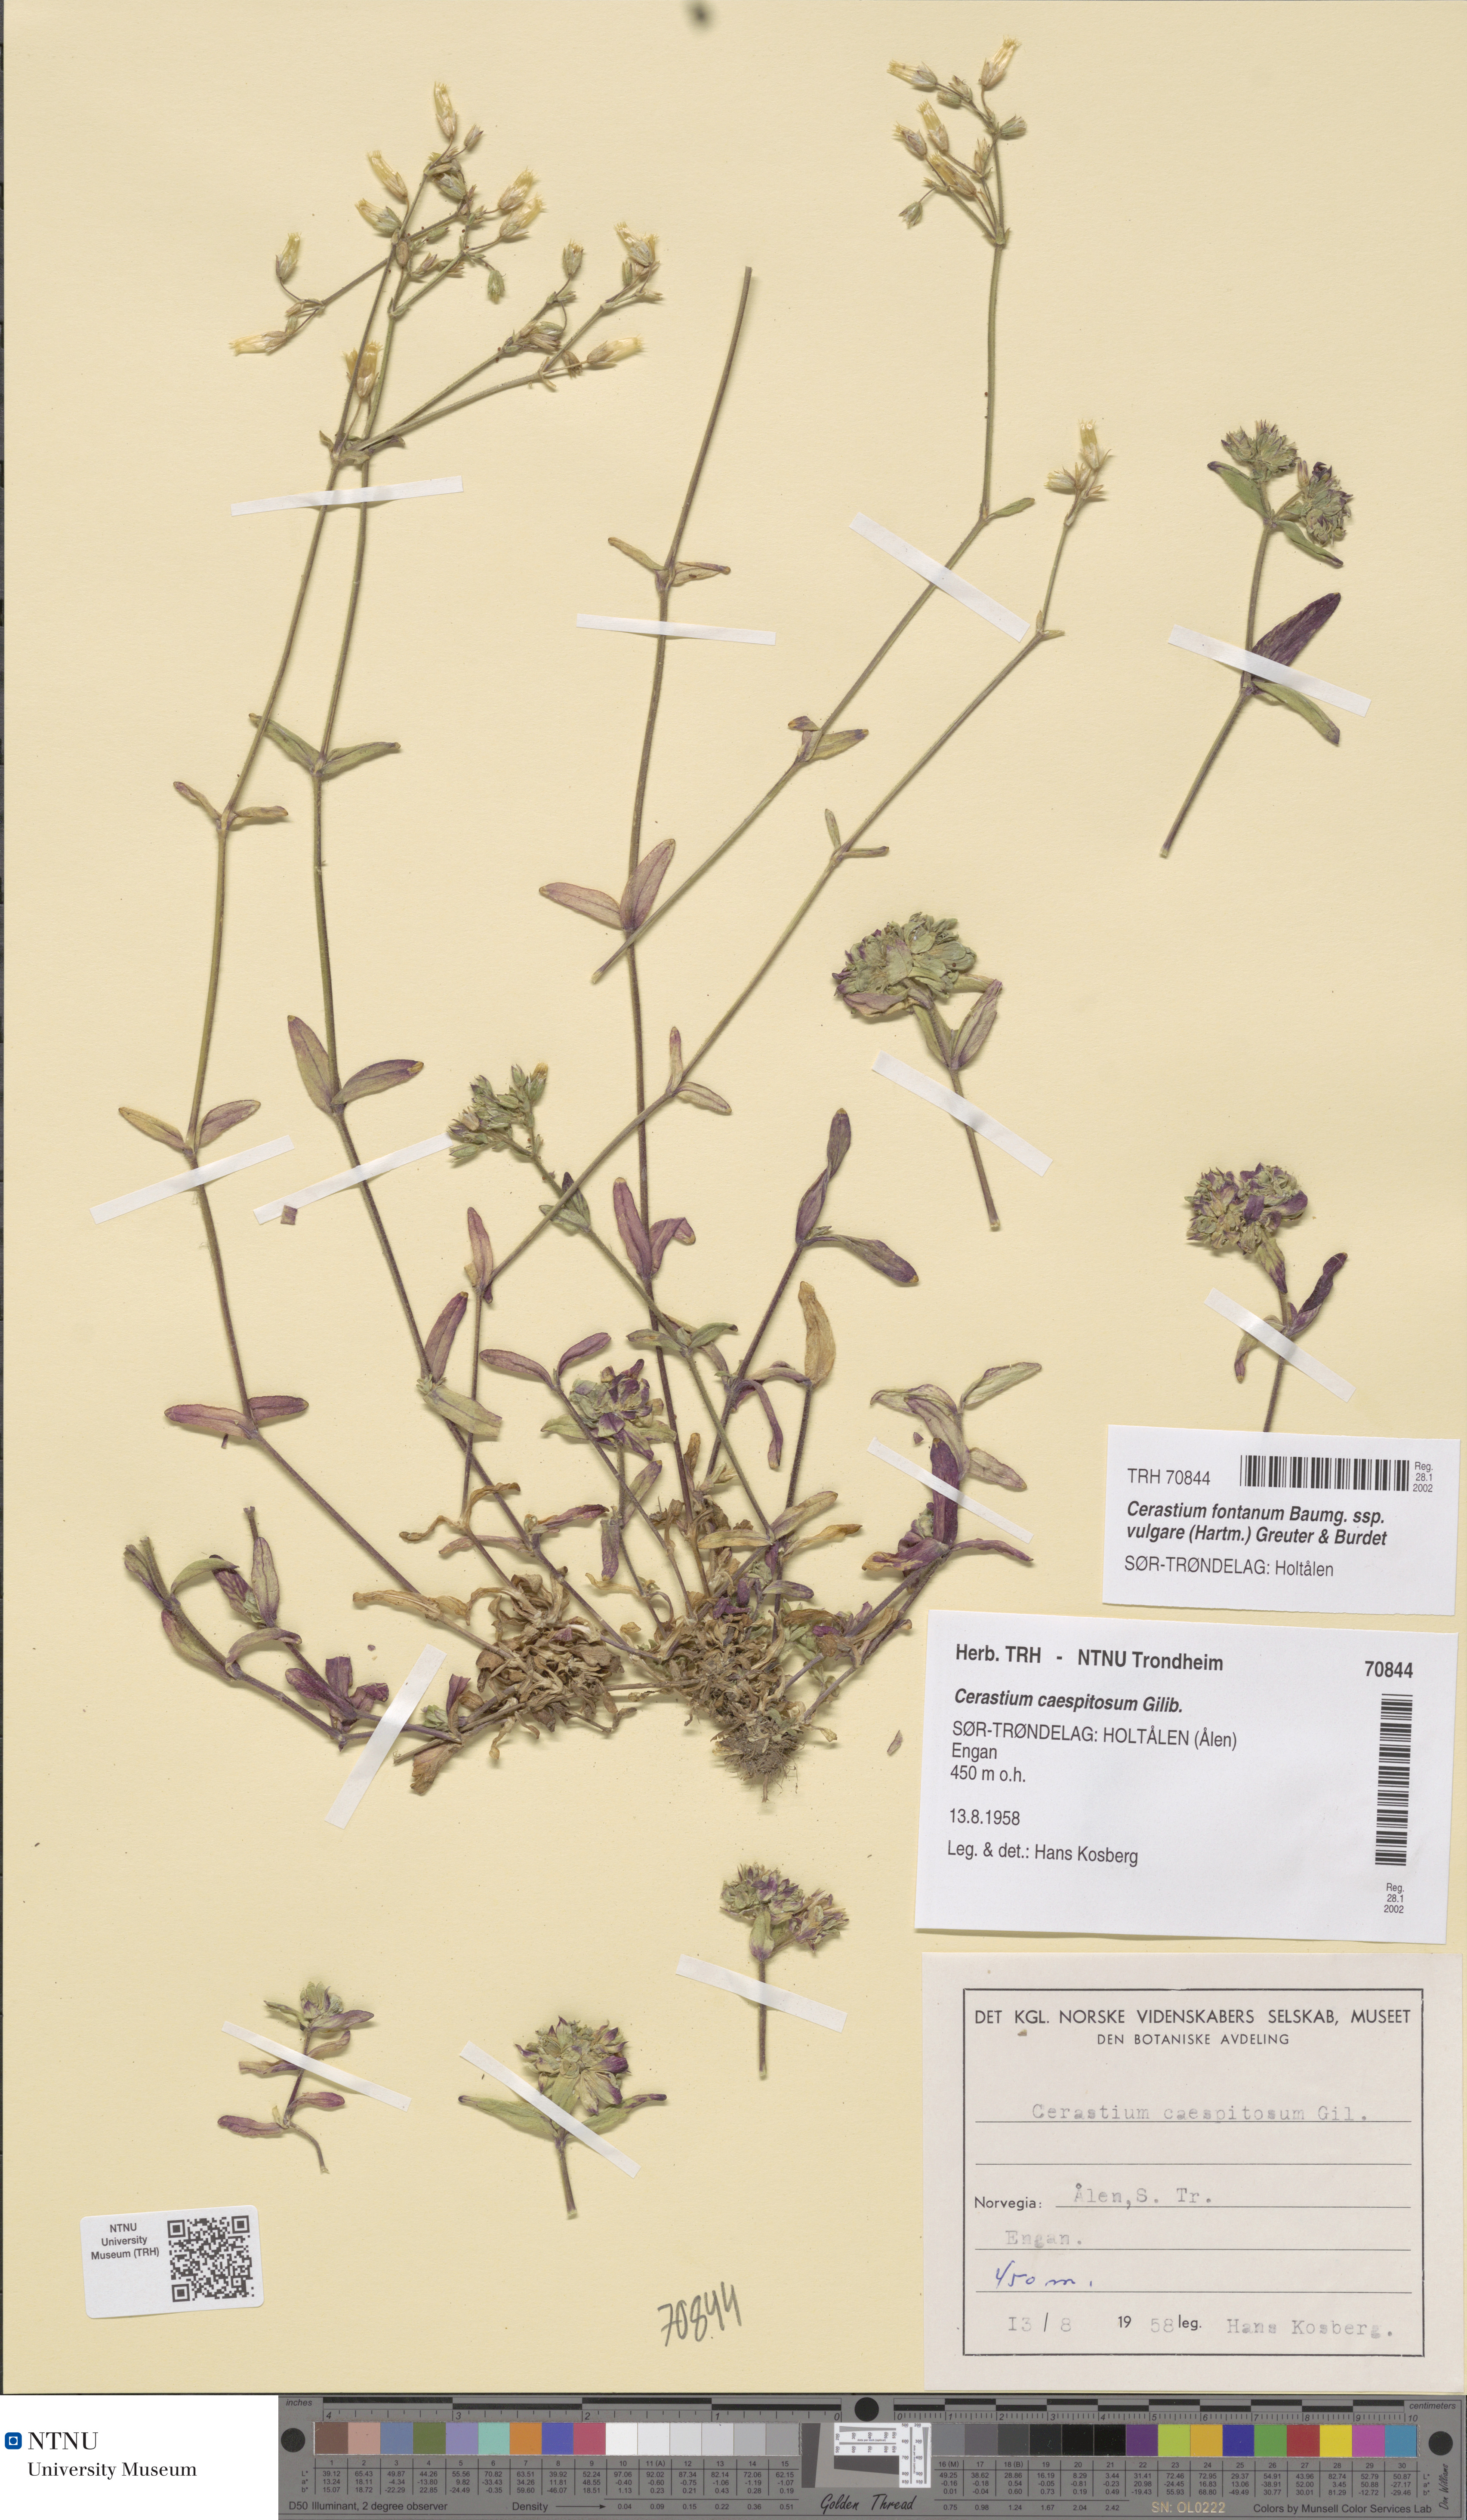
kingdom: Plantae
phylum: Tracheophyta
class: Magnoliopsida
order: Caryophyllales
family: Caryophyllaceae
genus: Cerastium
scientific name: Cerastium holosteoides
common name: Big chickweed
